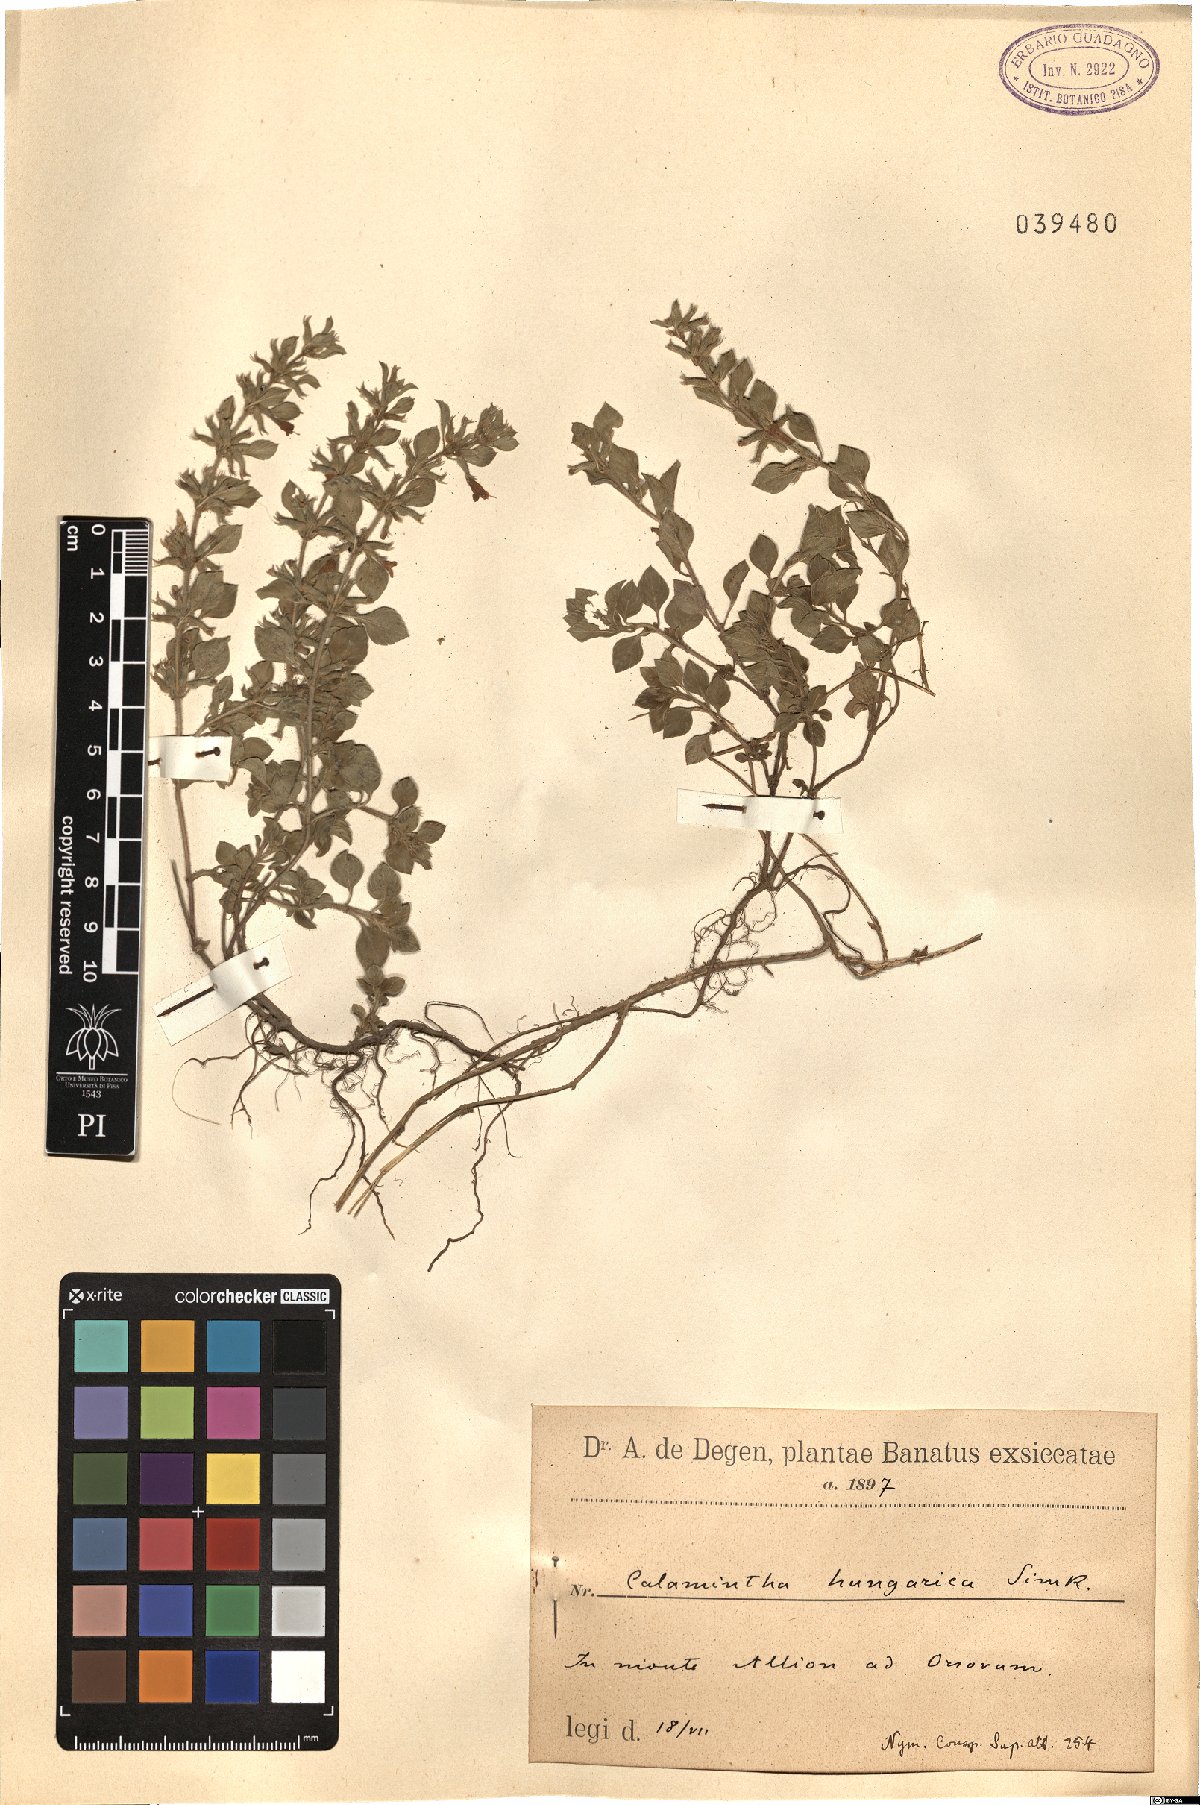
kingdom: Plantae
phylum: Tracheophyta
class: Magnoliopsida
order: Lamiales
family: Lamiaceae
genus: Clinopodium
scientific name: Clinopodium alpinum
